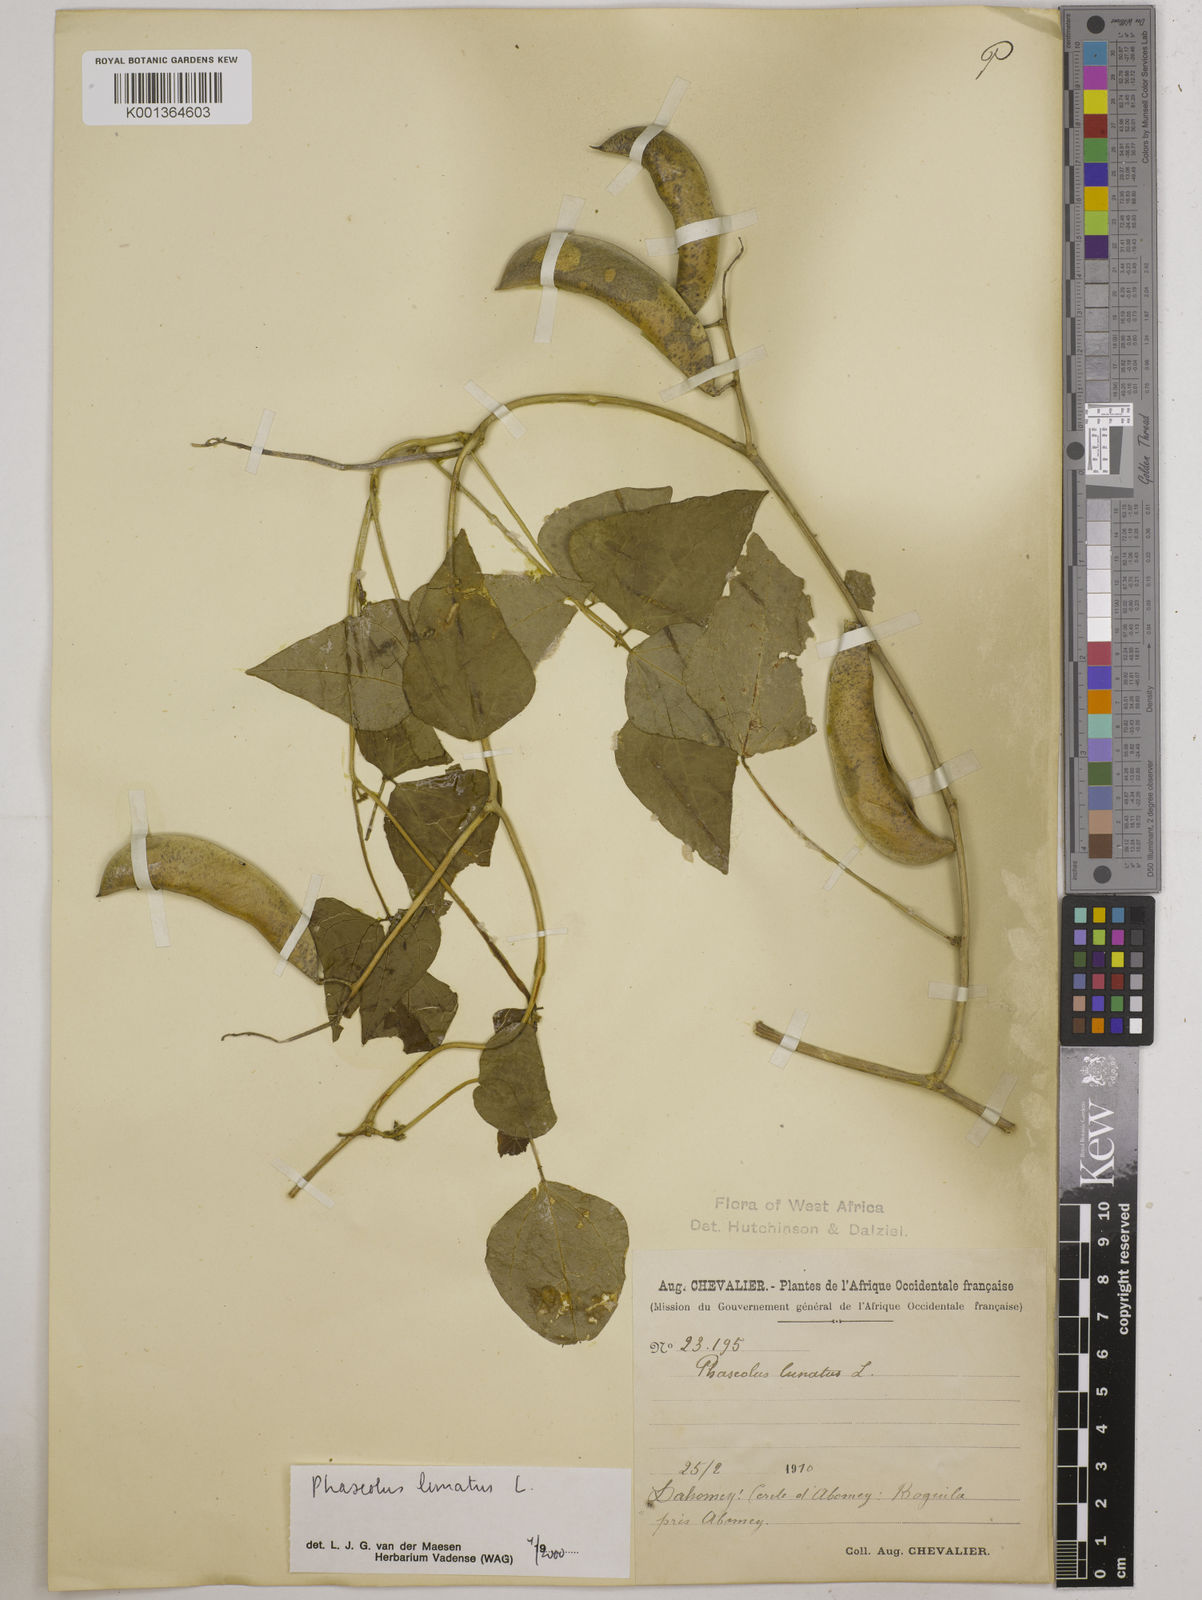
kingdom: Plantae
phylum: Tracheophyta
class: Magnoliopsida
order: Fabales
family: Fabaceae
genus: Phaseolus
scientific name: Phaseolus lunatus
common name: Sieva bean
